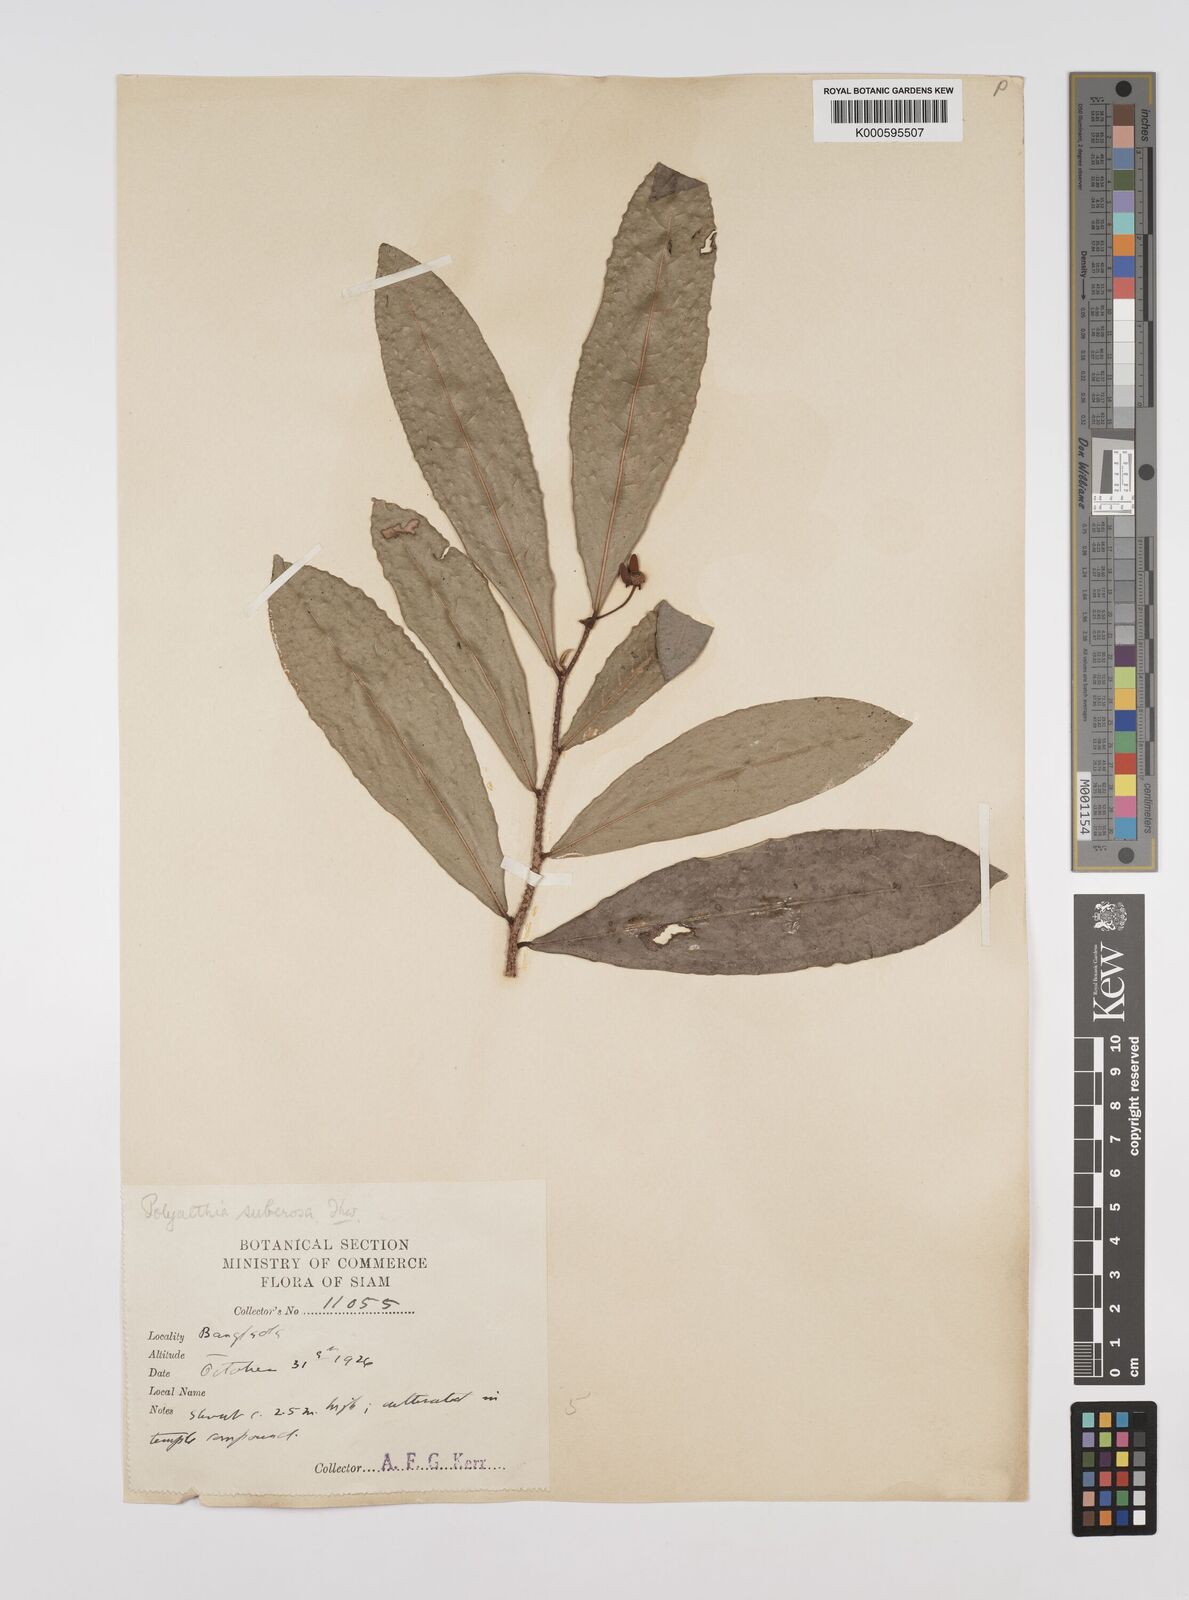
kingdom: Plantae
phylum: Tracheophyta
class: Magnoliopsida
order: Magnoliales
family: Annonaceae
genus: Polyalthia
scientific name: Polyalthia suberosa
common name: Polyalthia plant
